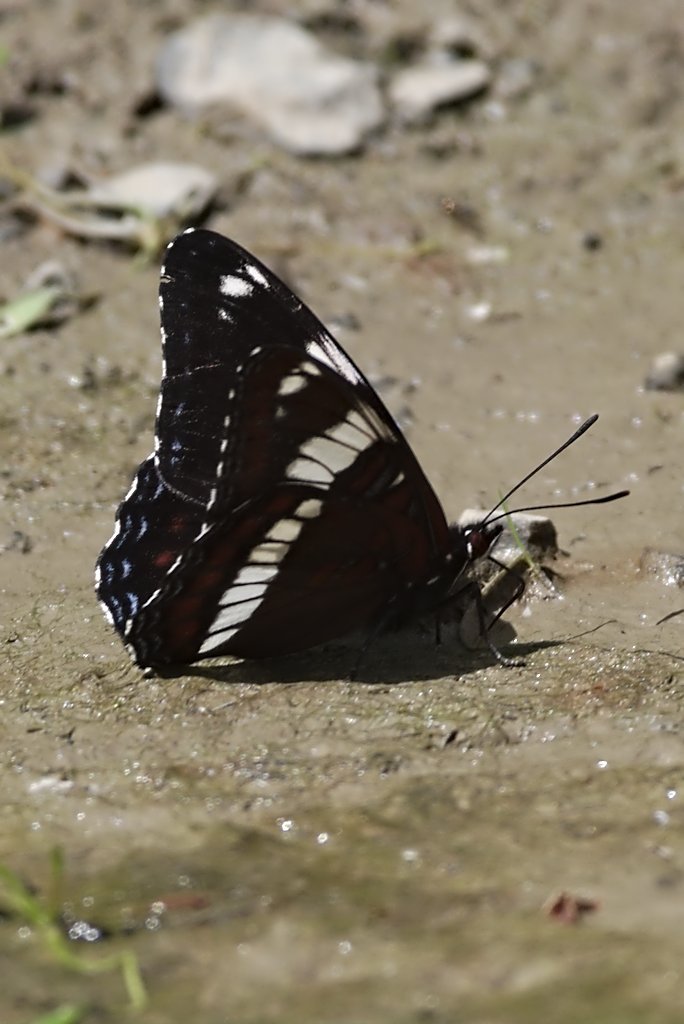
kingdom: Animalia
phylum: Arthropoda
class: Insecta
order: Lepidoptera
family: Nymphalidae
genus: Limenitis
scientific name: Limenitis arthemis
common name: Red-spotted Admiral
